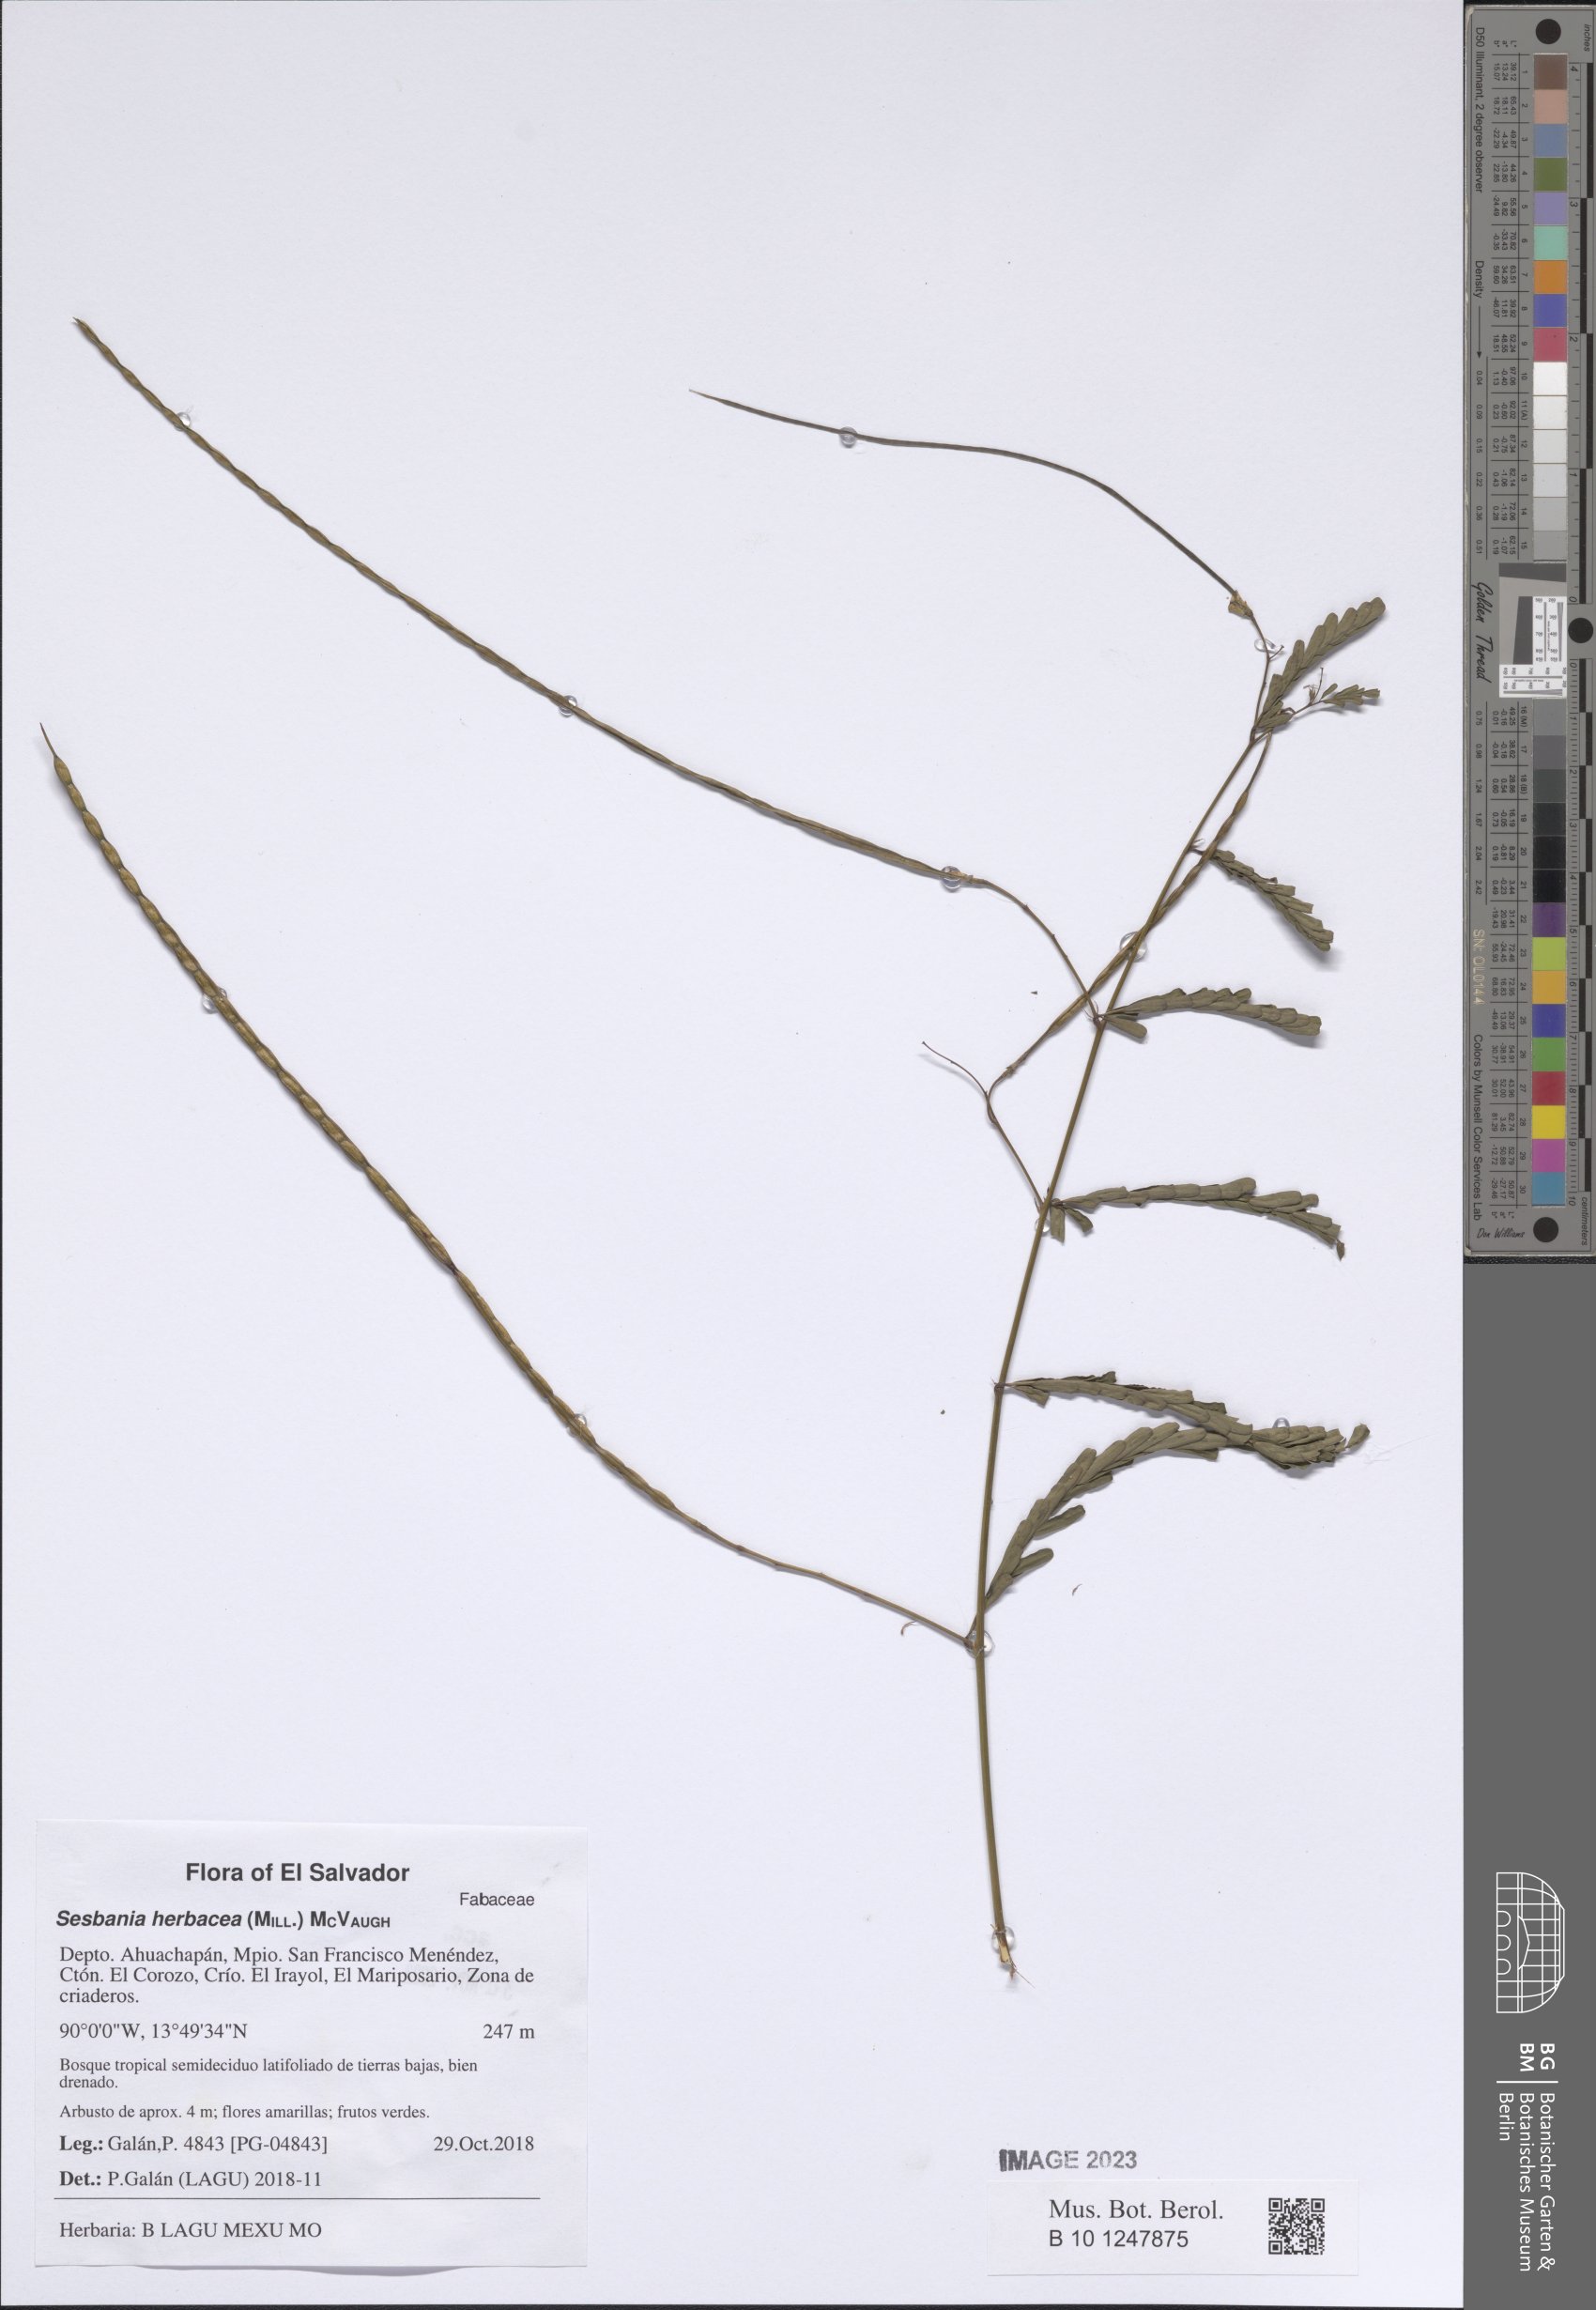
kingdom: Plantae
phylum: Tracheophyta
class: Magnoliopsida
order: Fabales
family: Fabaceae
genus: Sesbania
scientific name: Sesbania herbacea
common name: Bigpod sesbania
